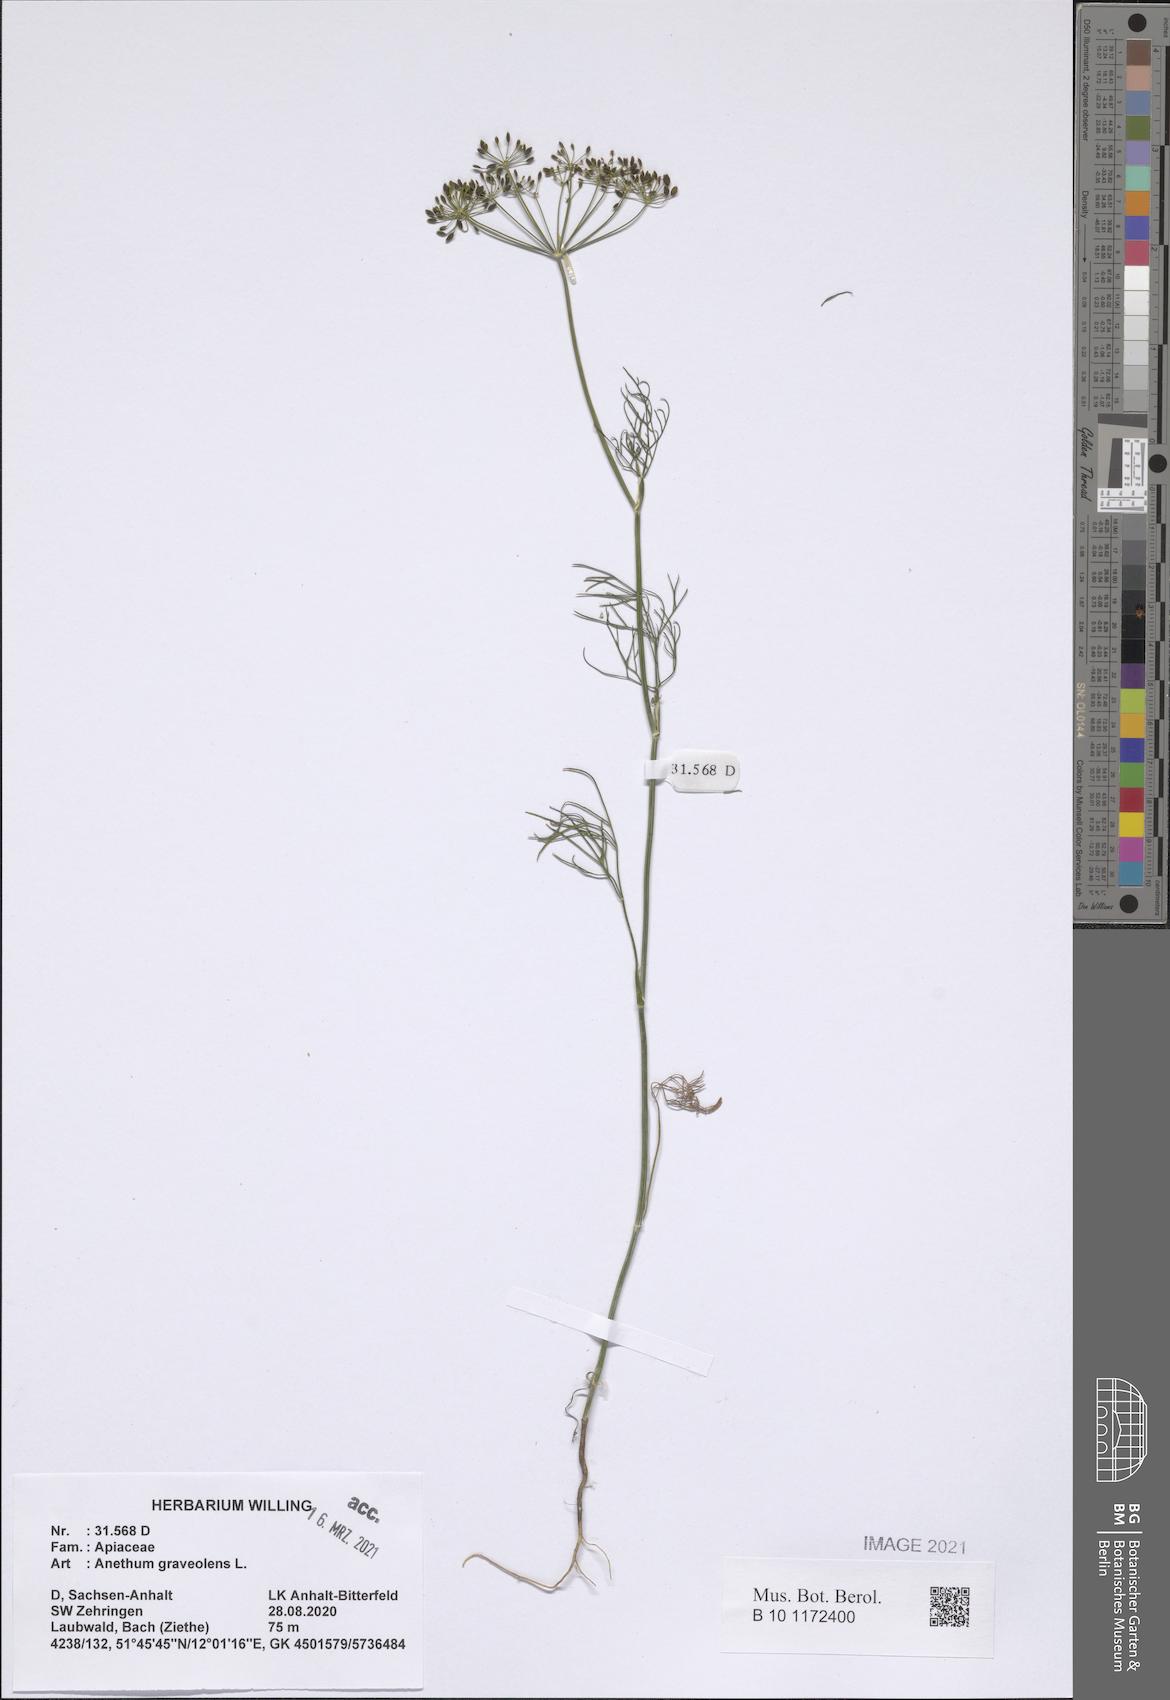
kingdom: Plantae
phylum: Tracheophyta
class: Magnoliopsida
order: Apiales
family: Apiaceae
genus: Anethum
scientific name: Anethum graveolens
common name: Dill
